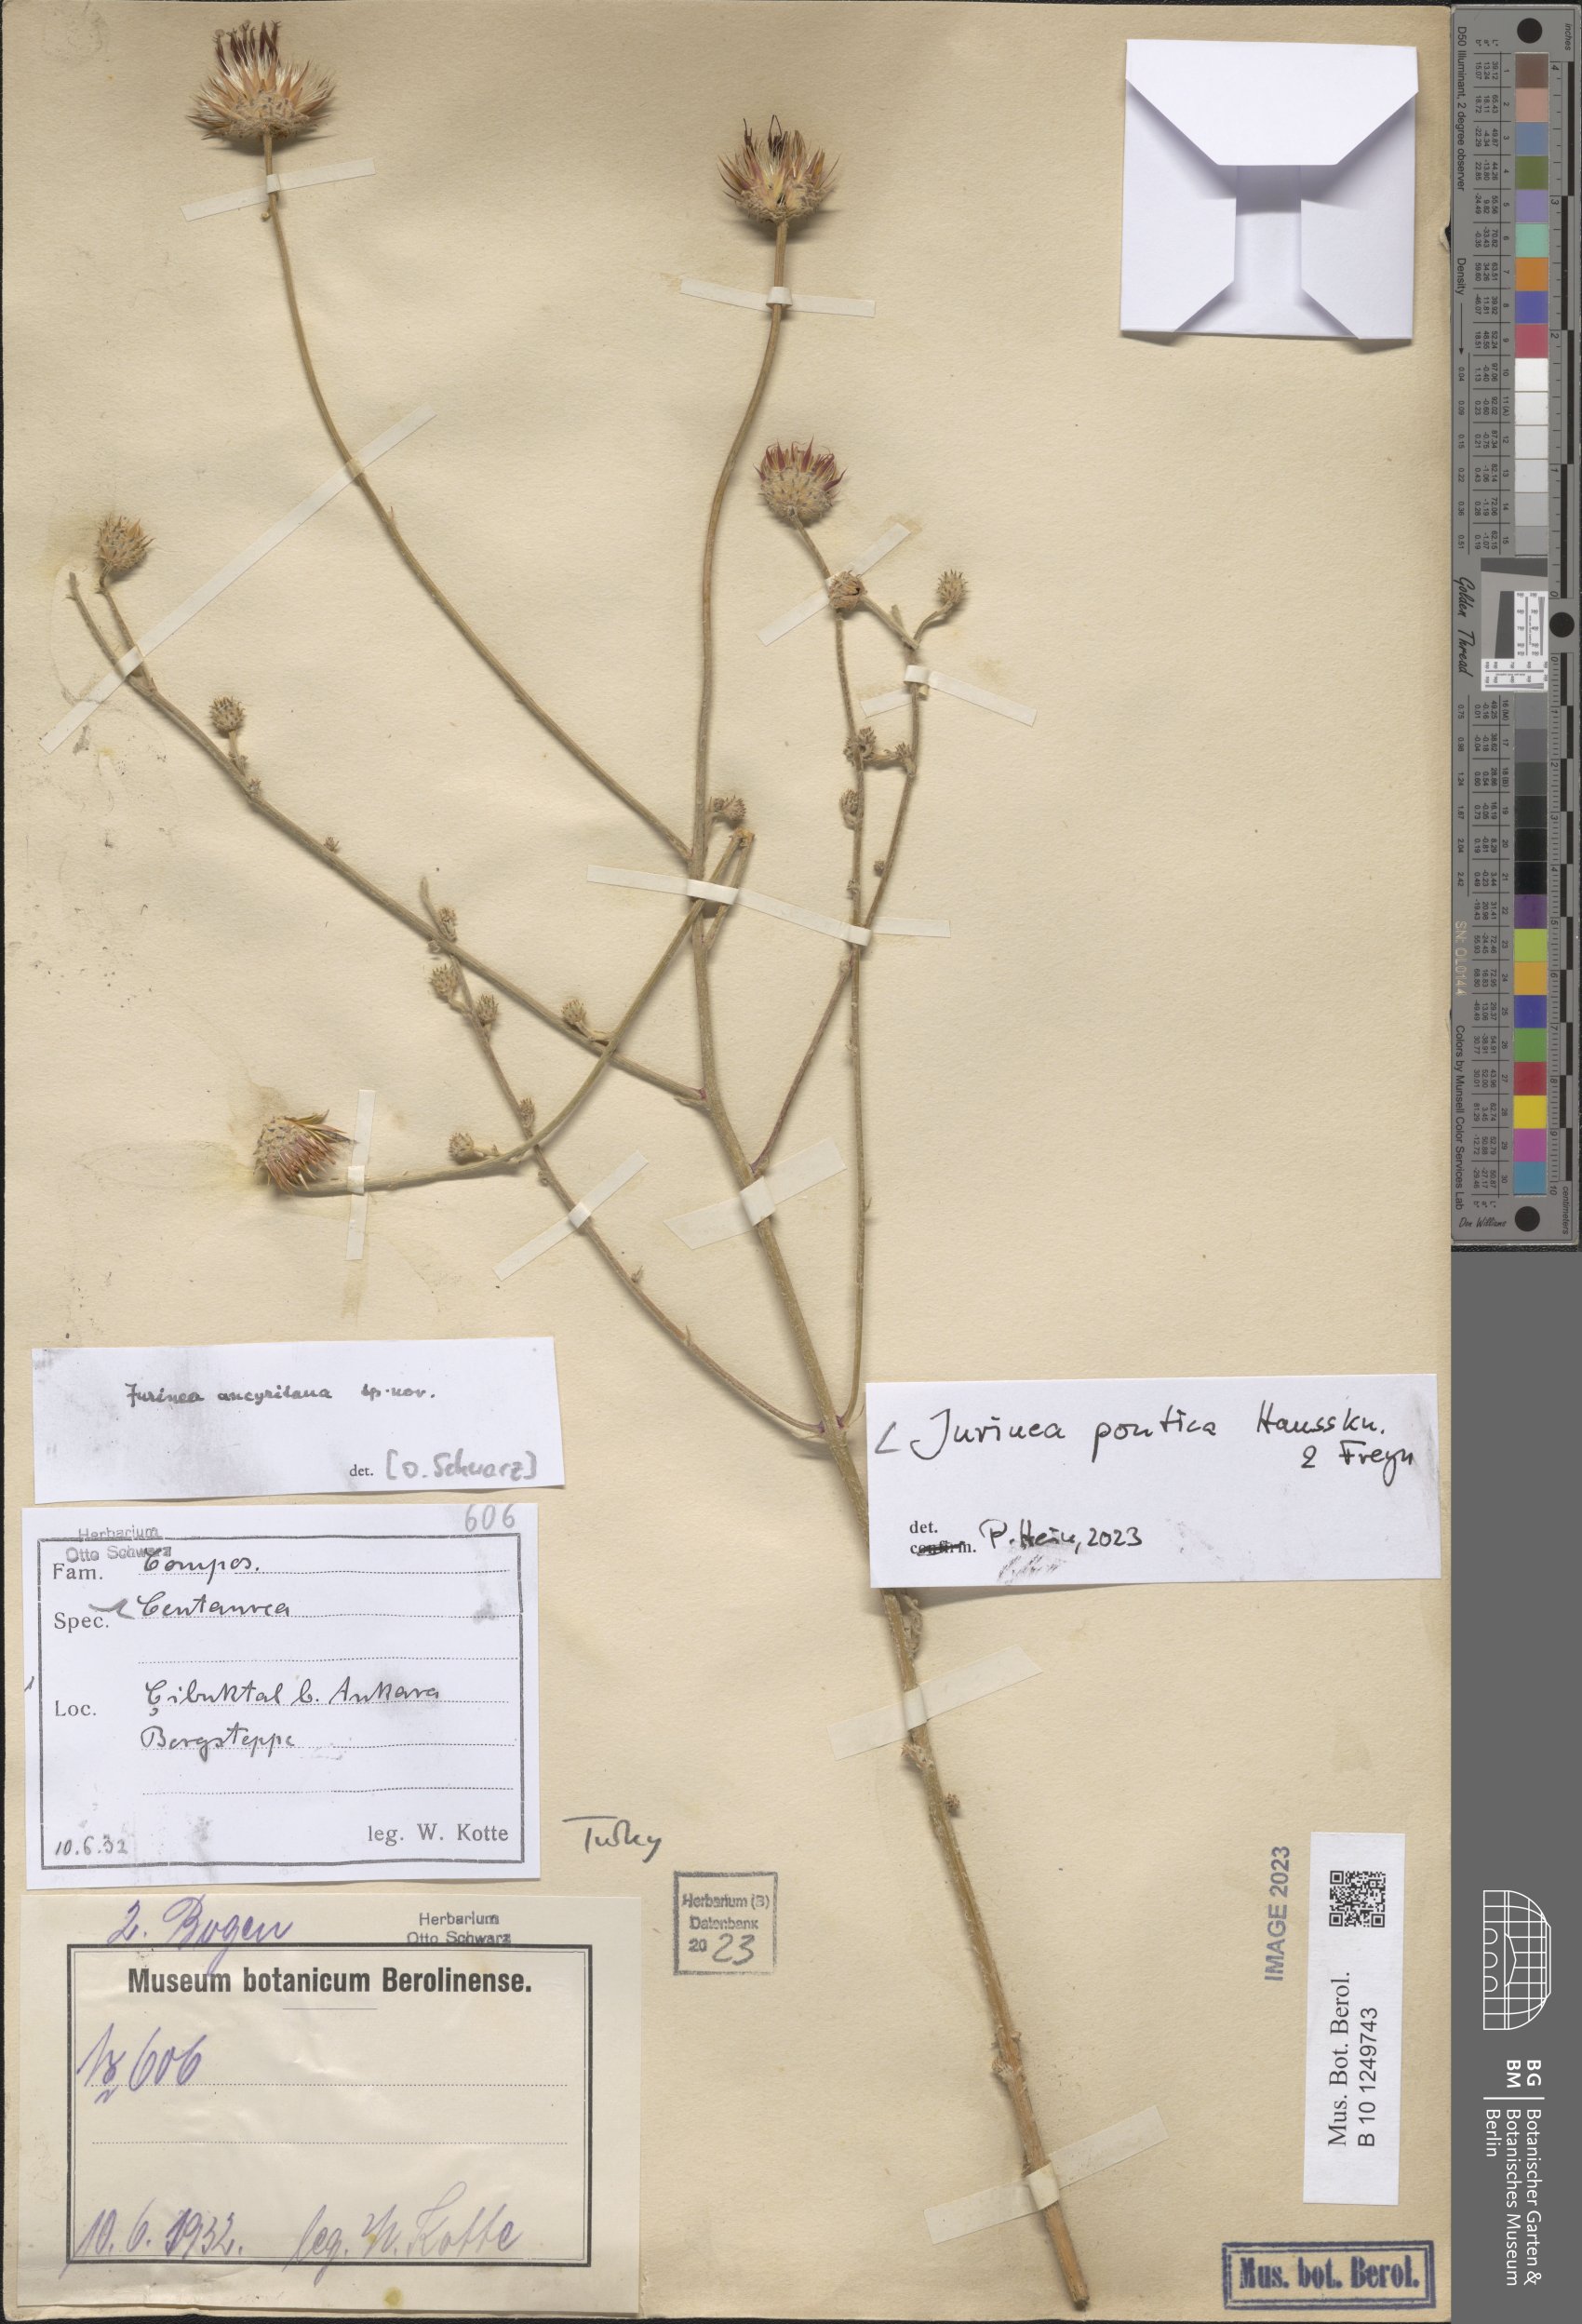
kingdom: Plantae
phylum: Tracheophyta
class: Magnoliopsida
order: Asterales
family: Asteraceae
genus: Jurinea
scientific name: Jurinea pontica
